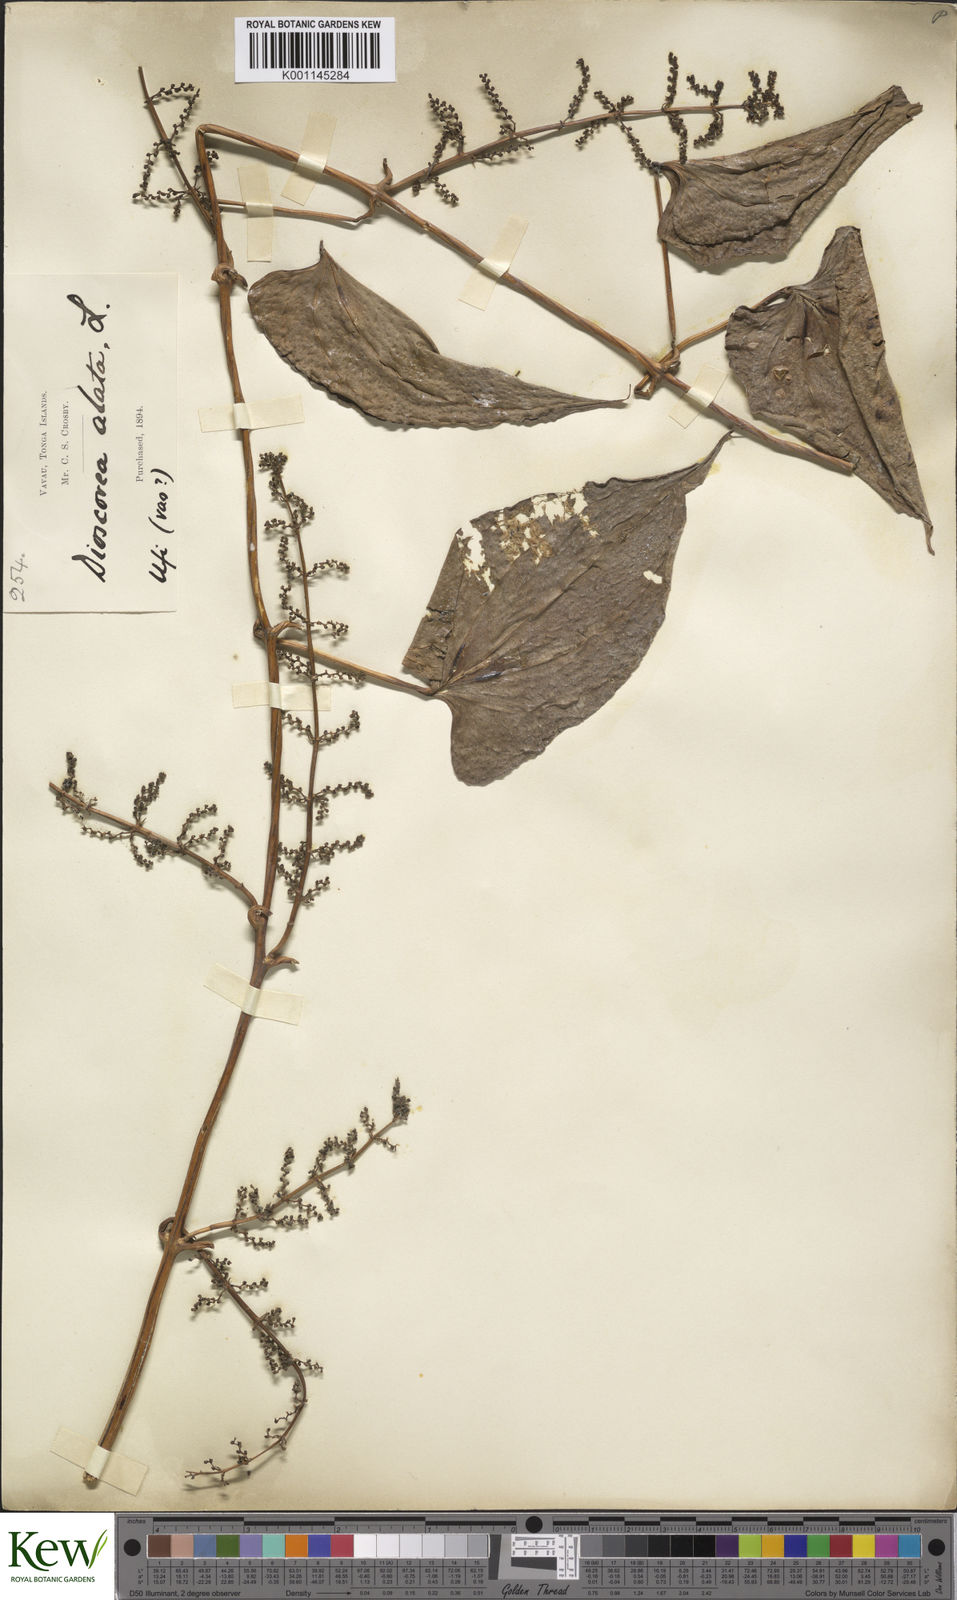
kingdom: Plantae
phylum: Tracheophyta
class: Liliopsida
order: Dioscoreales
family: Dioscoreaceae
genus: Dioscorea
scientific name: Dioscorea alata
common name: Water yam
